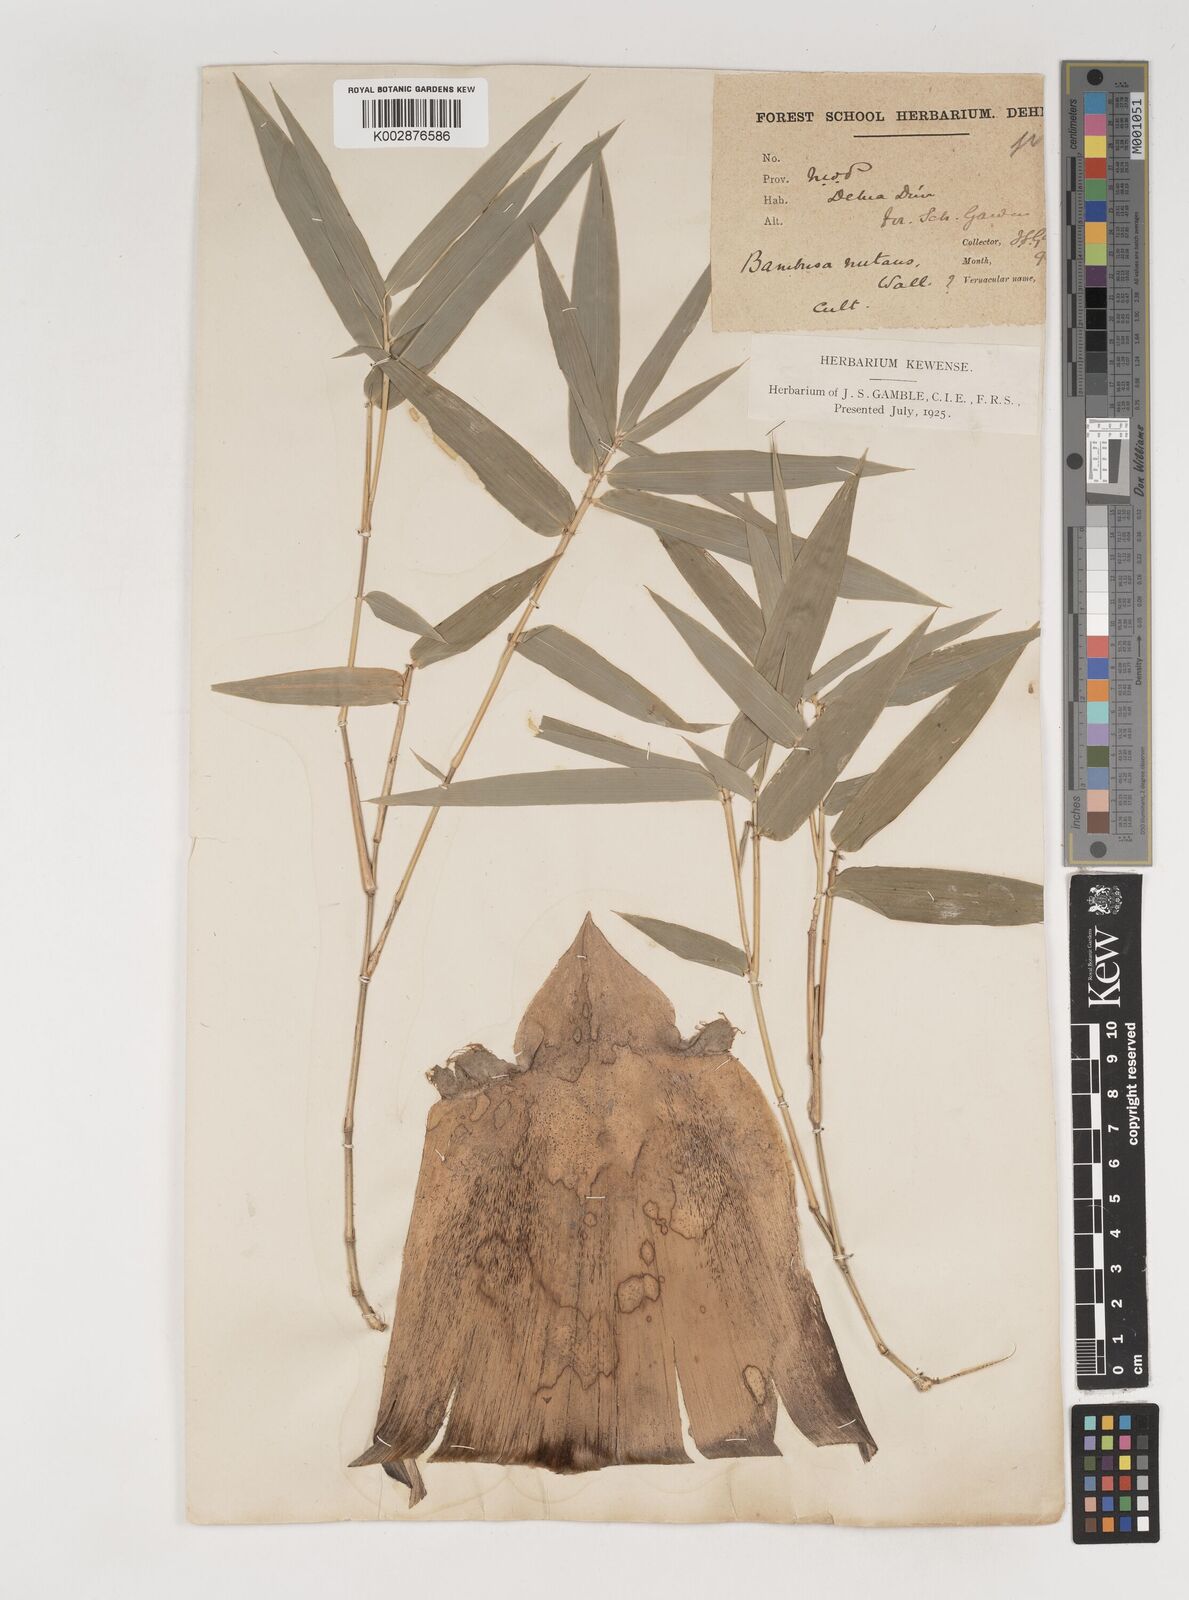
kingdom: Plantae
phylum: Tracheophyta
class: Liliopsida
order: Poales
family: Poaceae
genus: Bambusa
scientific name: Bambusa nutans
